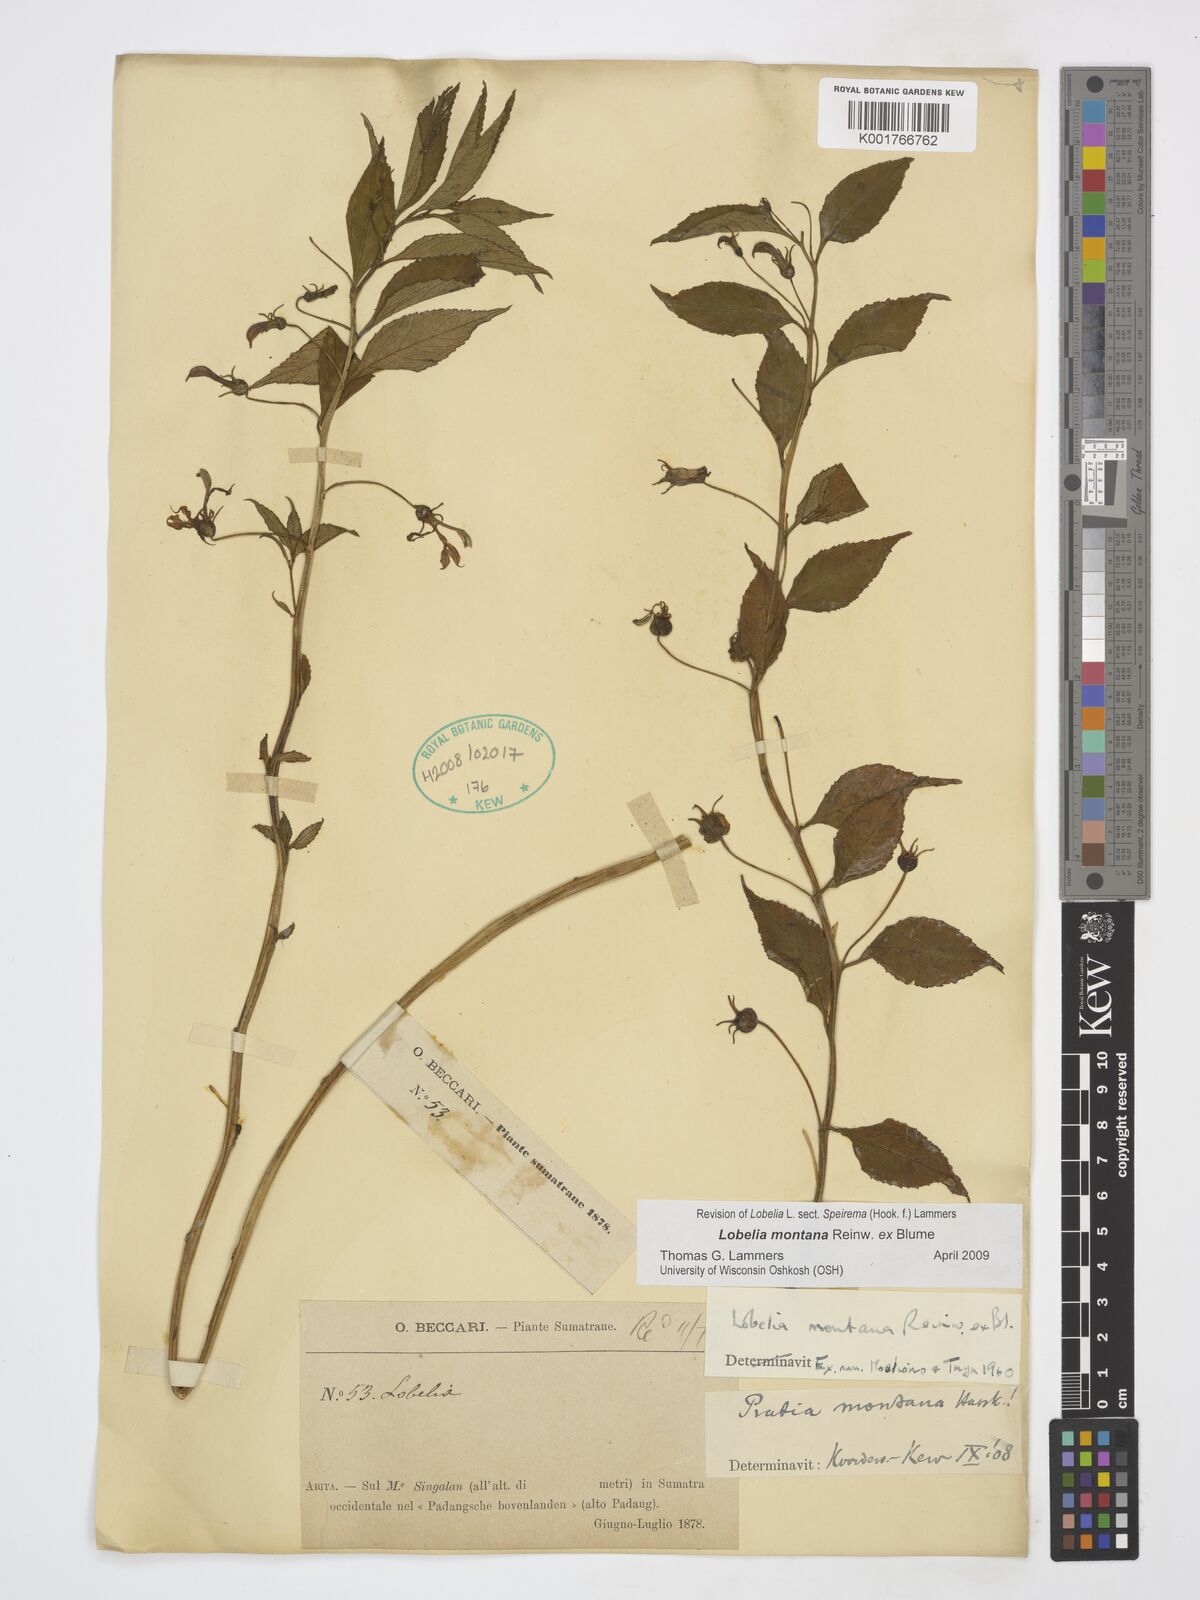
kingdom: Plantae
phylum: Tracheophyta
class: Magnoliopsida
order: Asterales
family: Campanulaceae
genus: Lobelia
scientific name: Lobelia montana
